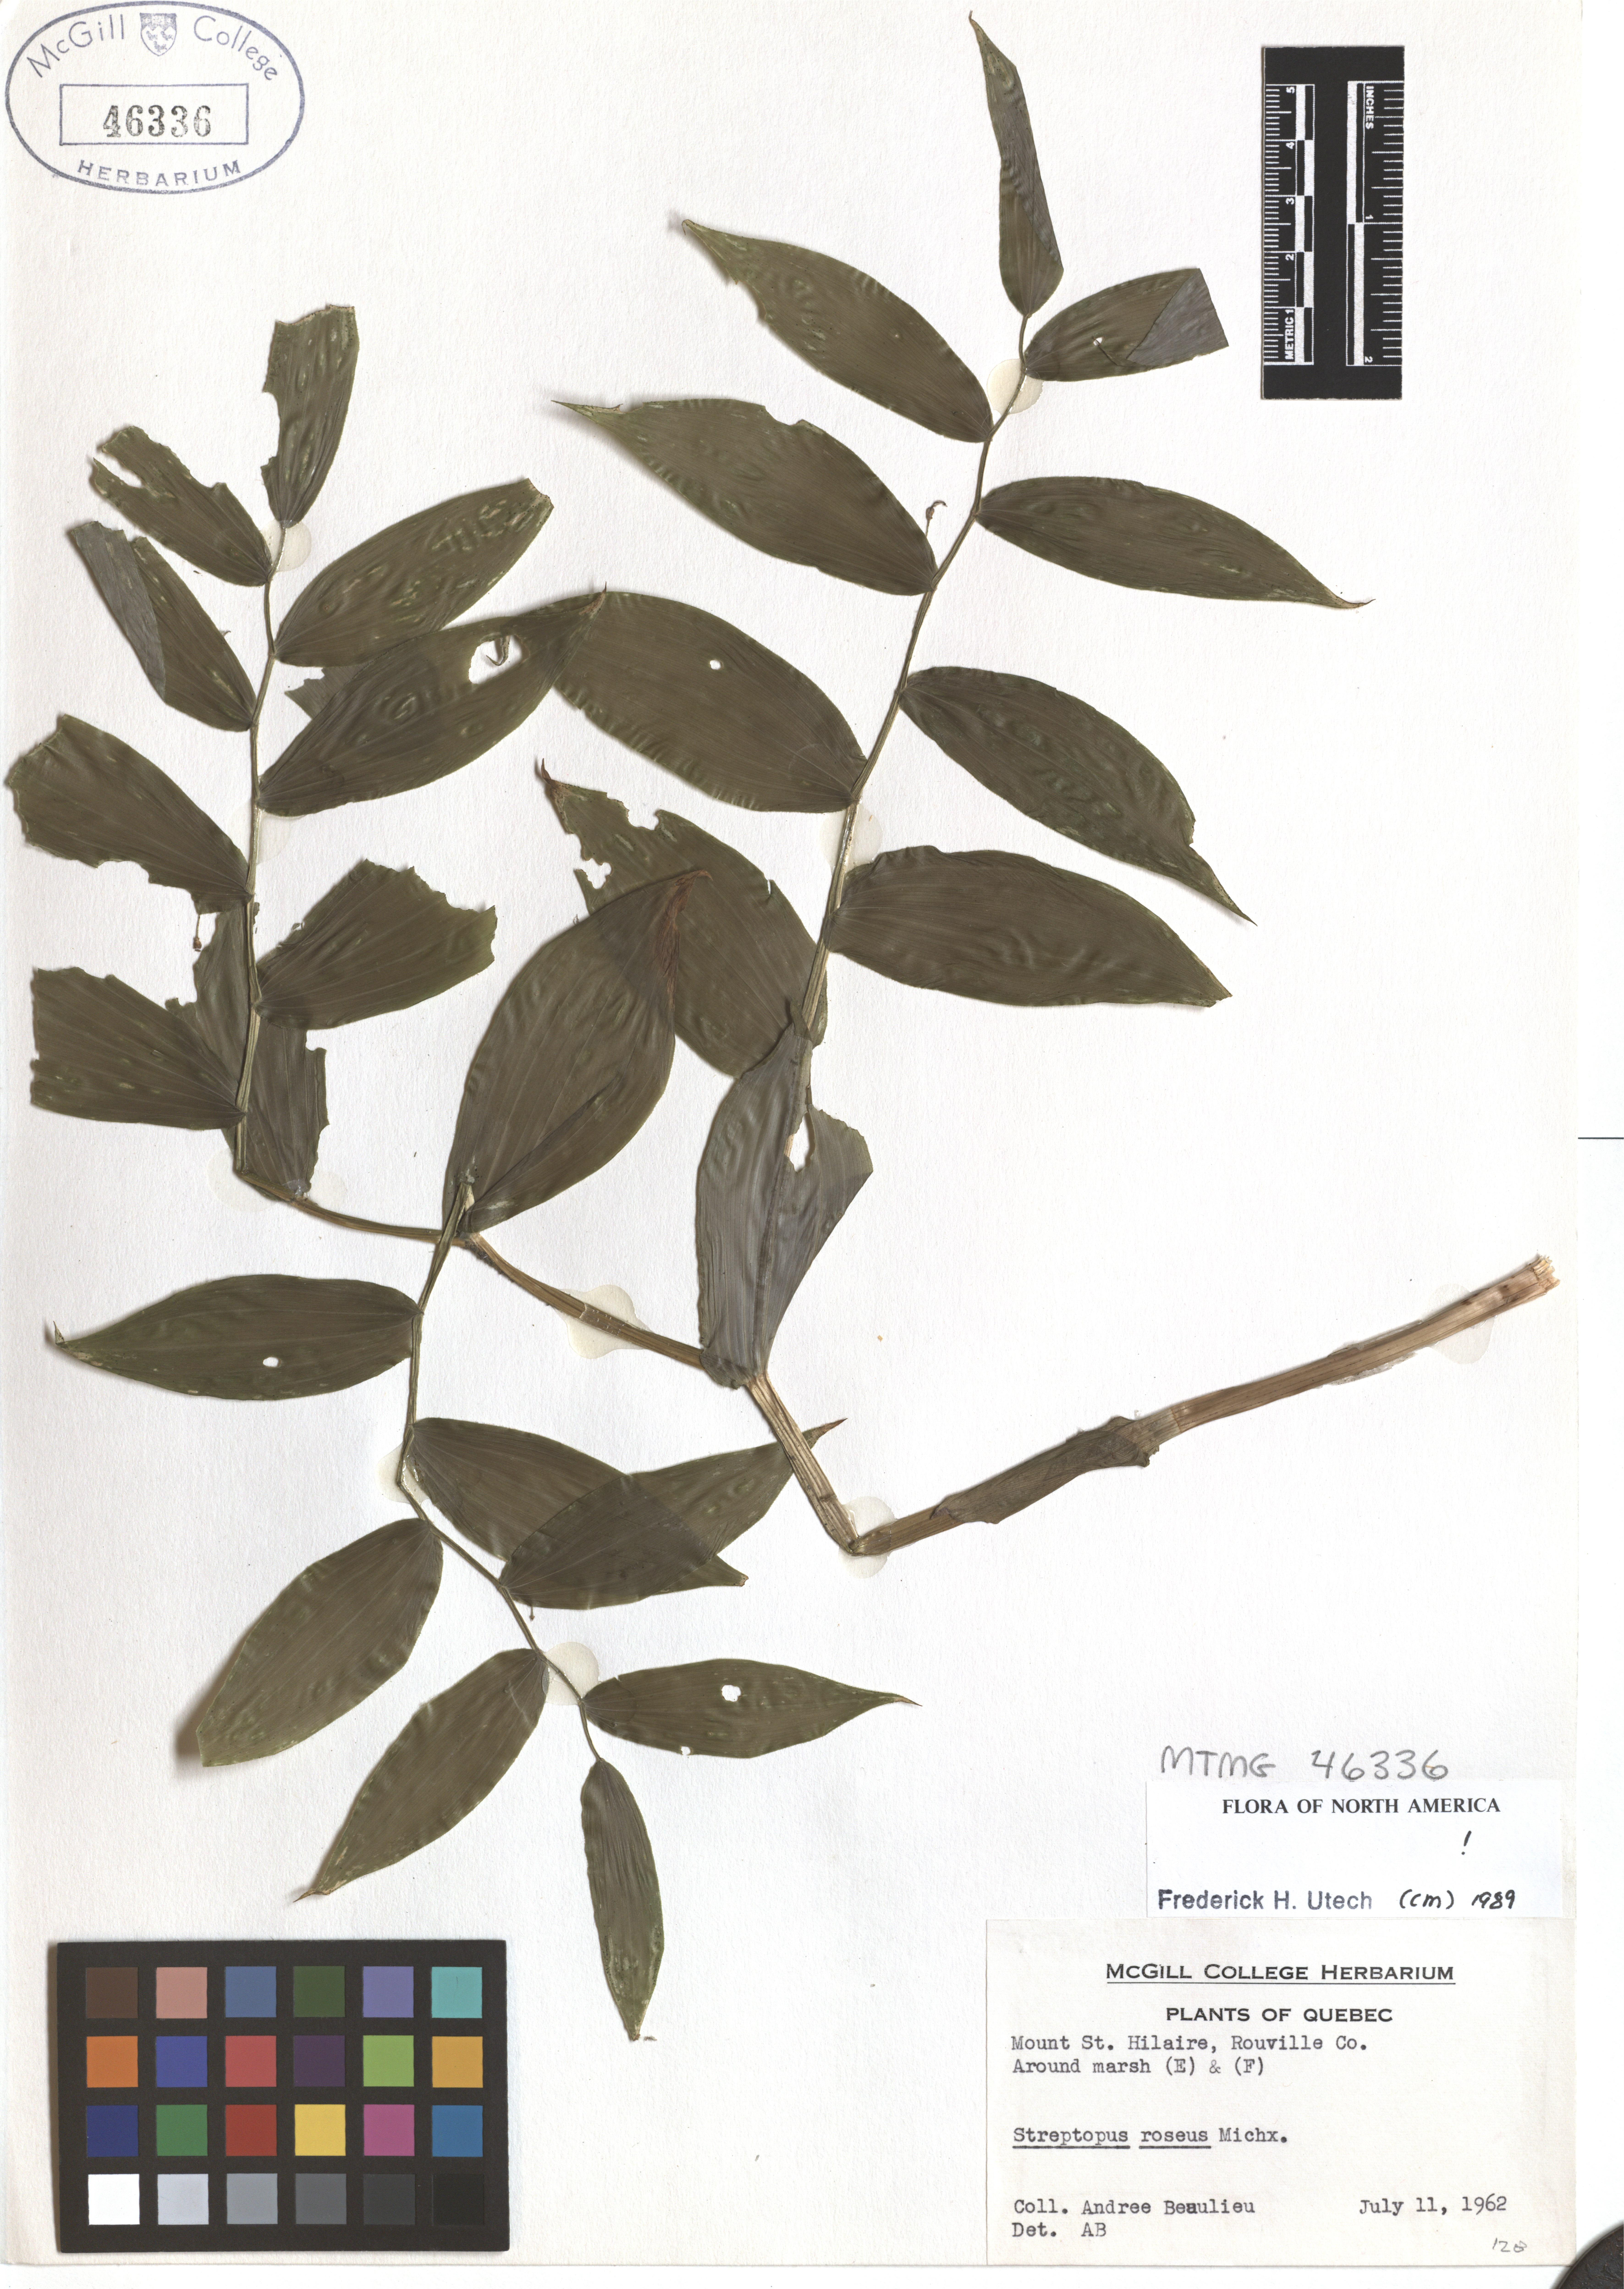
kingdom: Plantae
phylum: Tracheophyta
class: Liliopsida
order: Liliales
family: Liliaceae
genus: Streptopus
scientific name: Streptopus lanceolatus
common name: Rose mandarin
